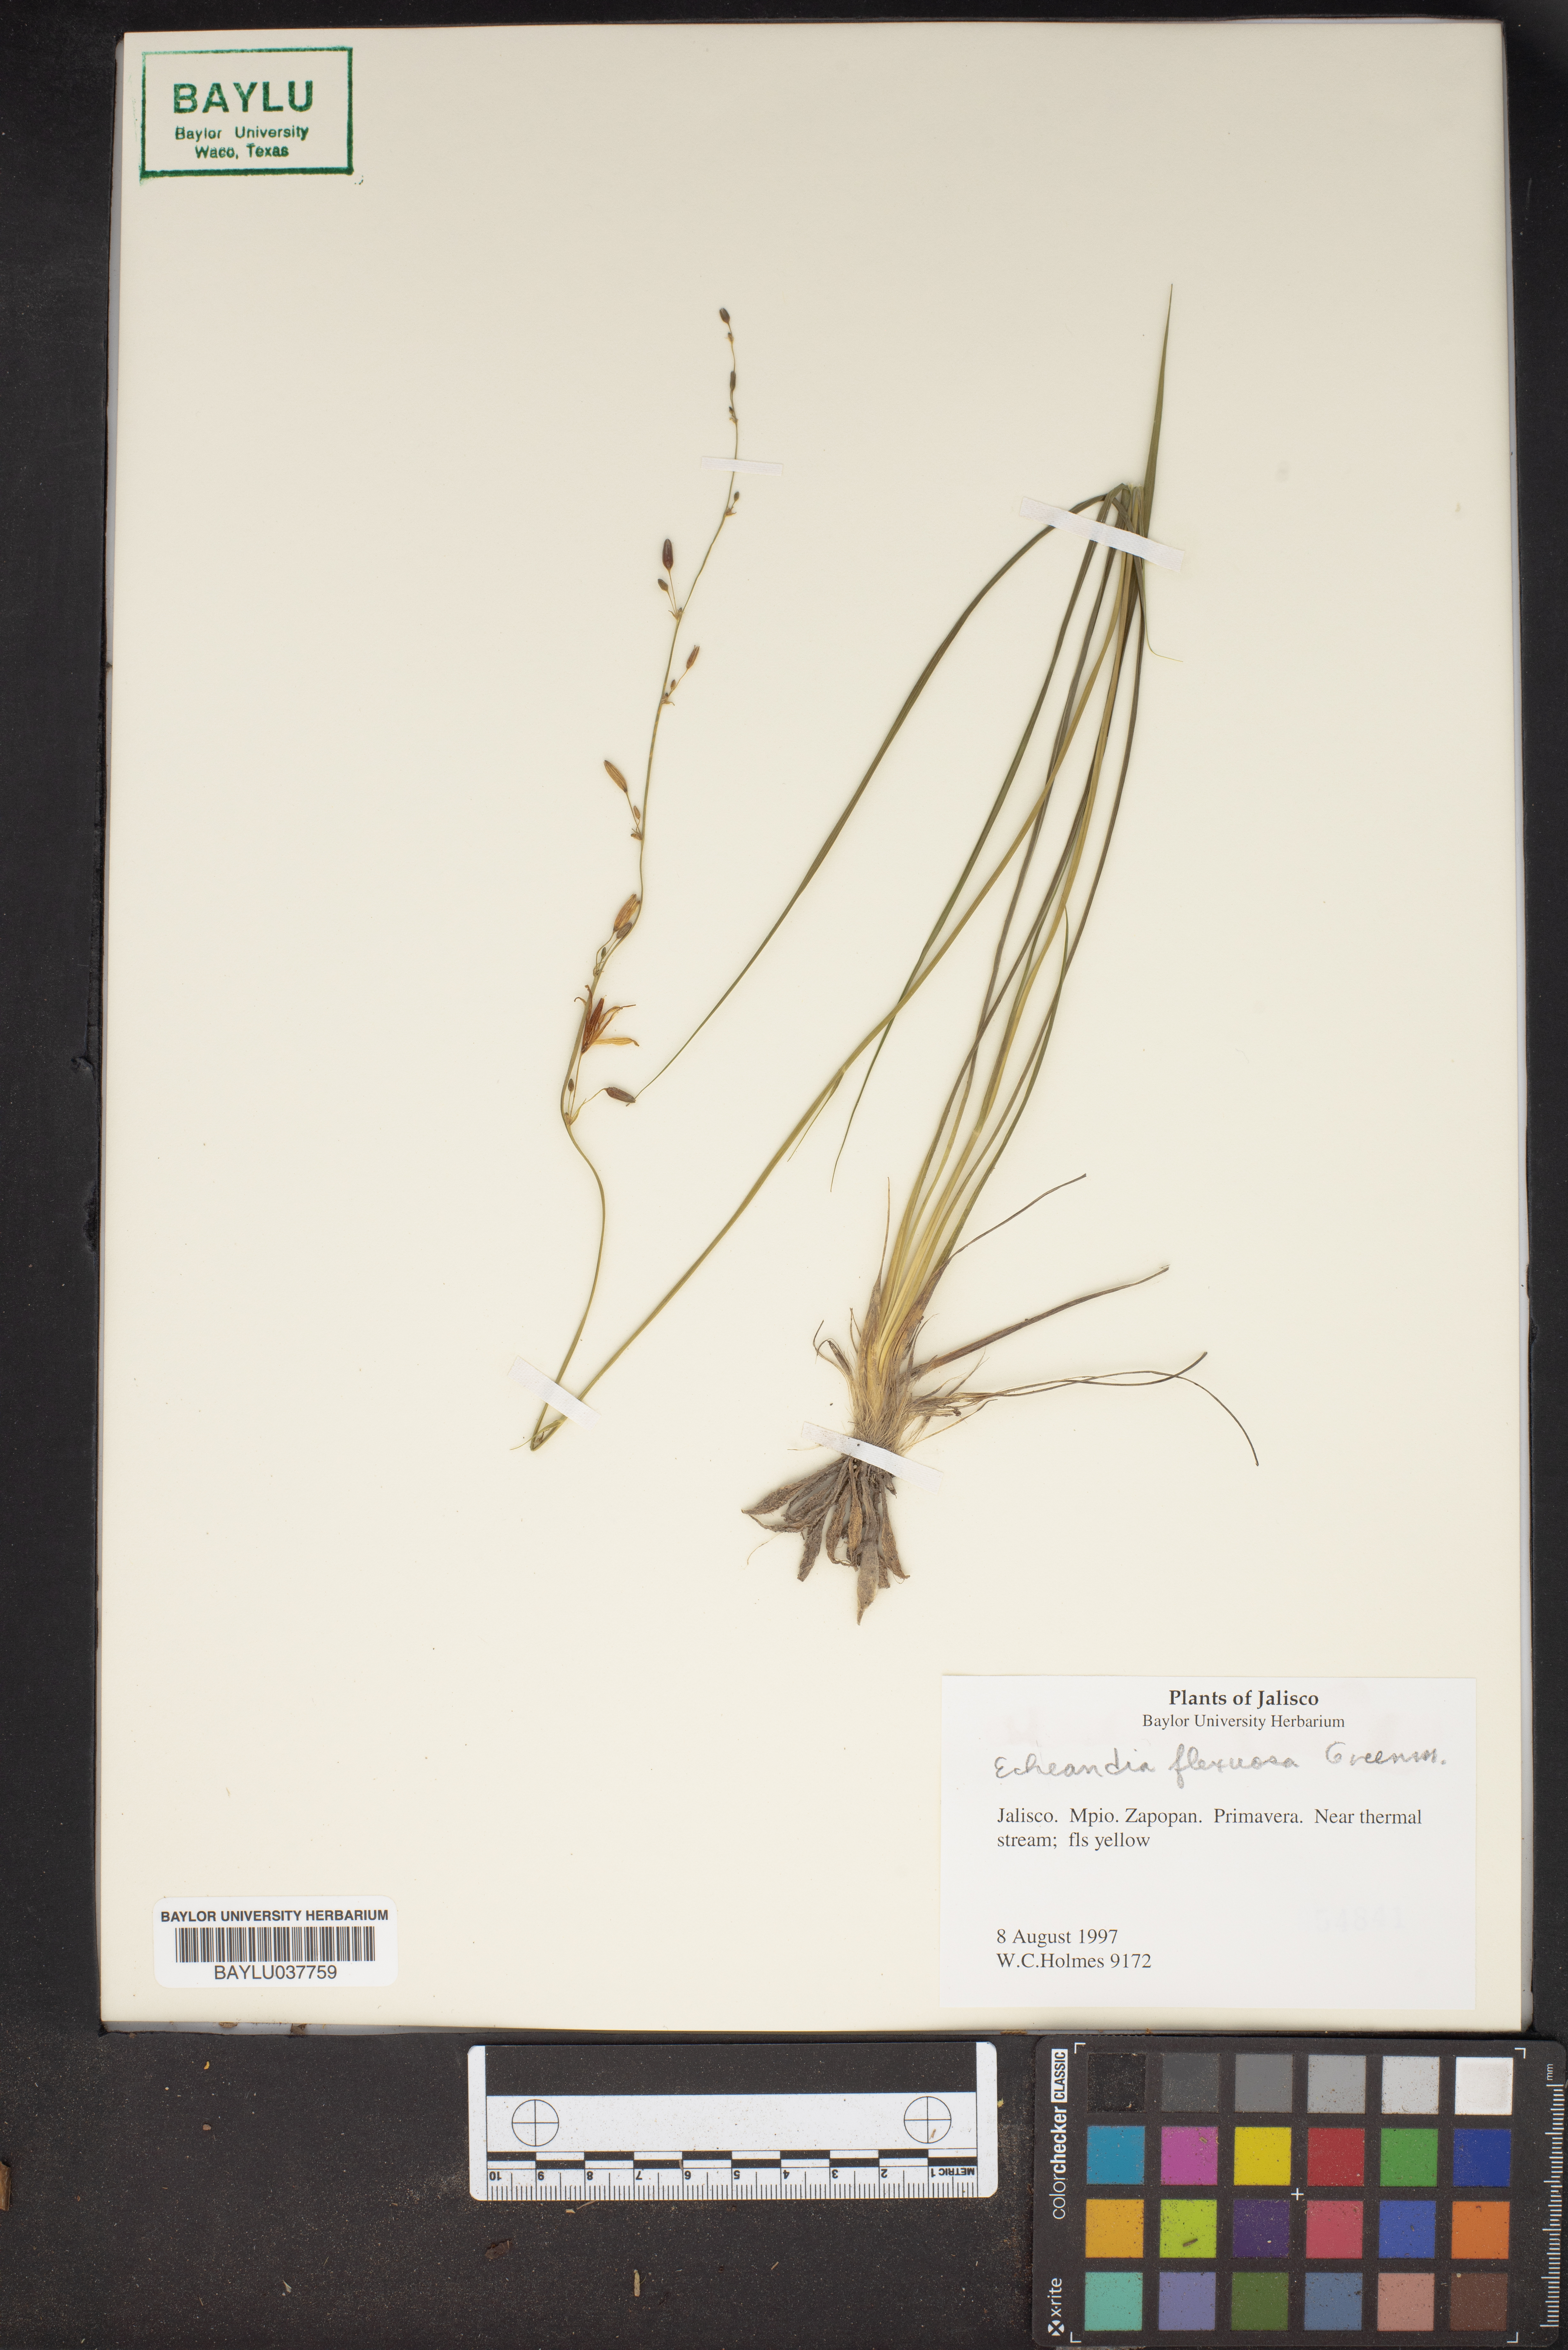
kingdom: Plantae
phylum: Tracheophyta
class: Liliopsida
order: Asparagales
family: Asparagaceae
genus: Echeandia
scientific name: Echeandia flexuosa
